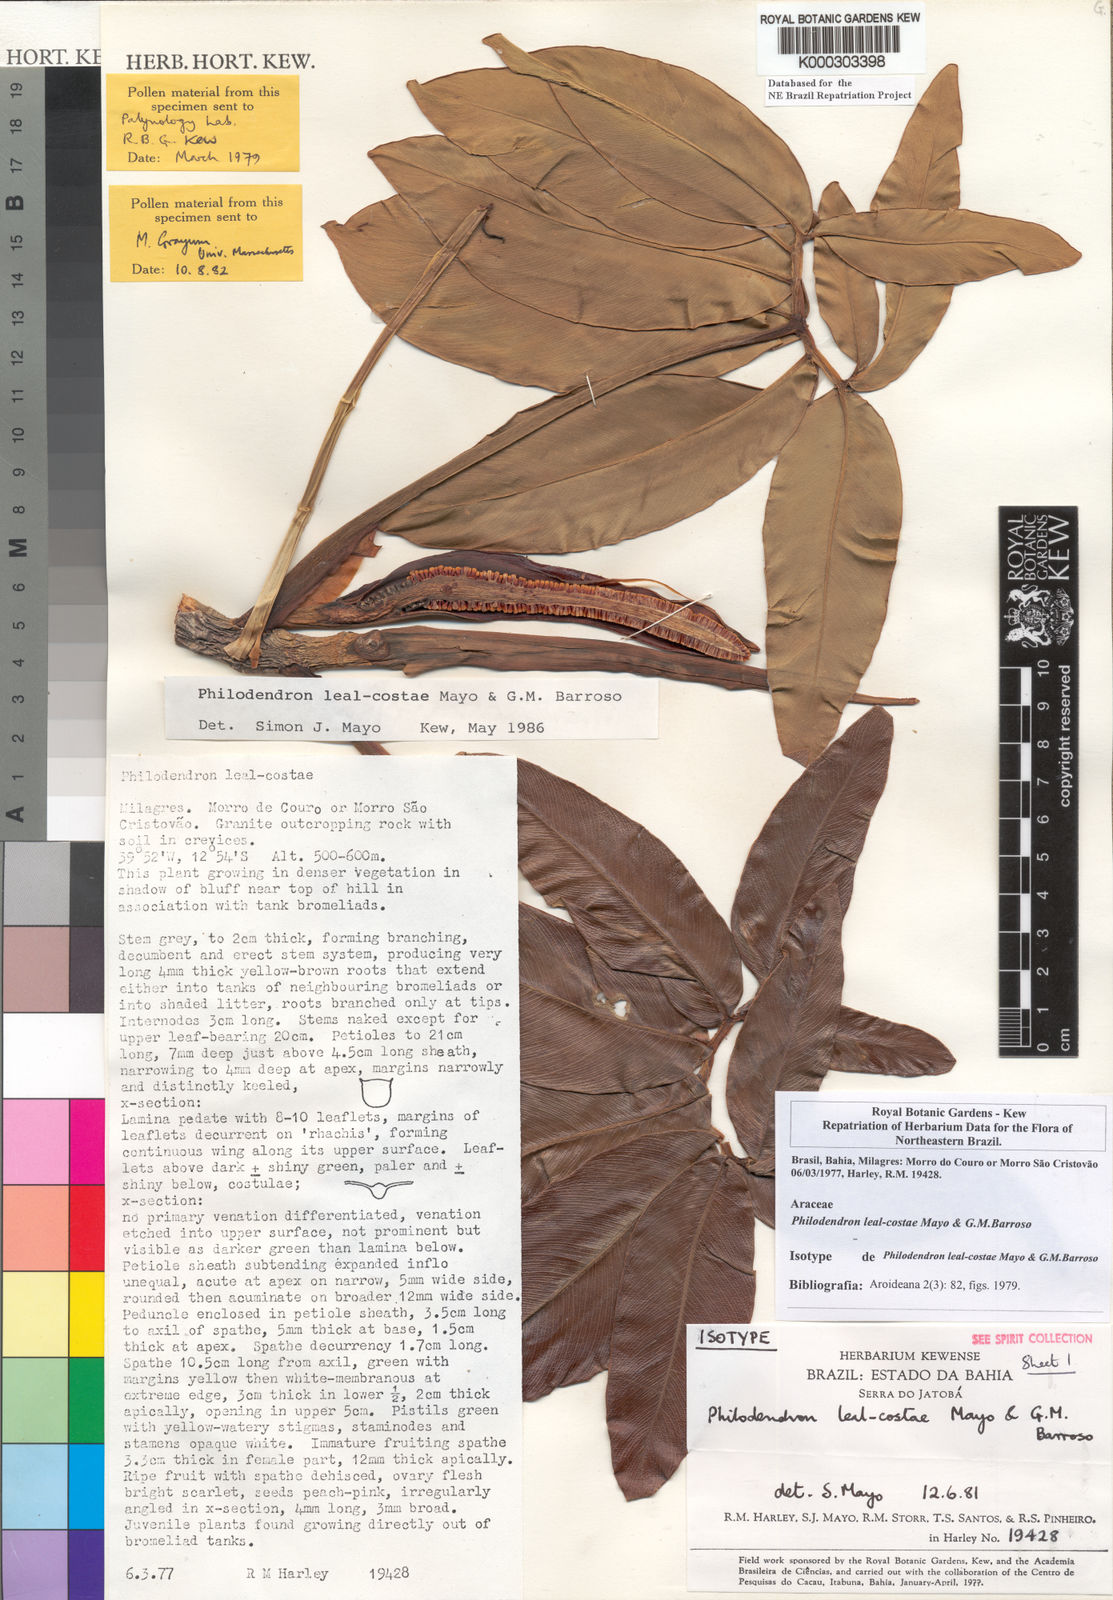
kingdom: Plantae
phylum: Tracheophyta
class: Liliopsida
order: Alismatales
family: Araceae
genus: Thaumatophyllum
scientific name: Thaumatophyllum leal-costae
